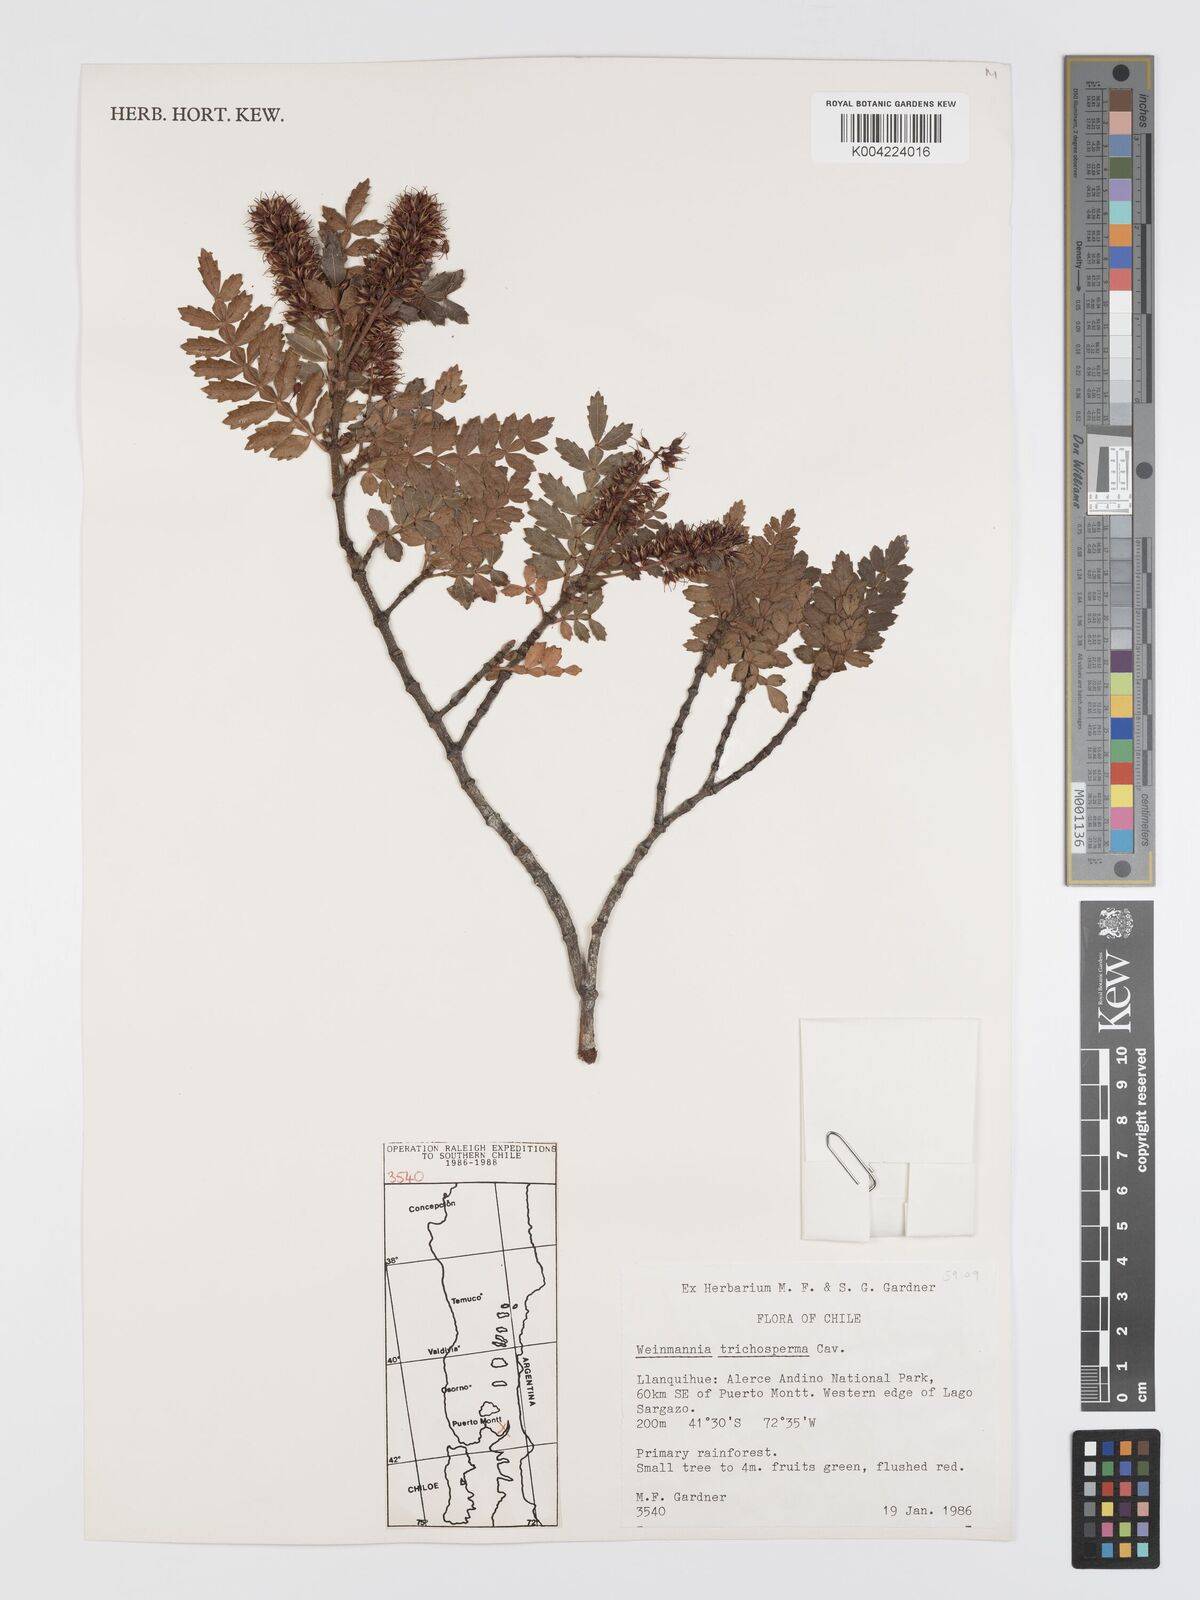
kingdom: Plantae
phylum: Tracheophyta
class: Magnoliopsida
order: Oxalidales
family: Cunoniaceae
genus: Weinmannia
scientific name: Weinmannia trichosperma
